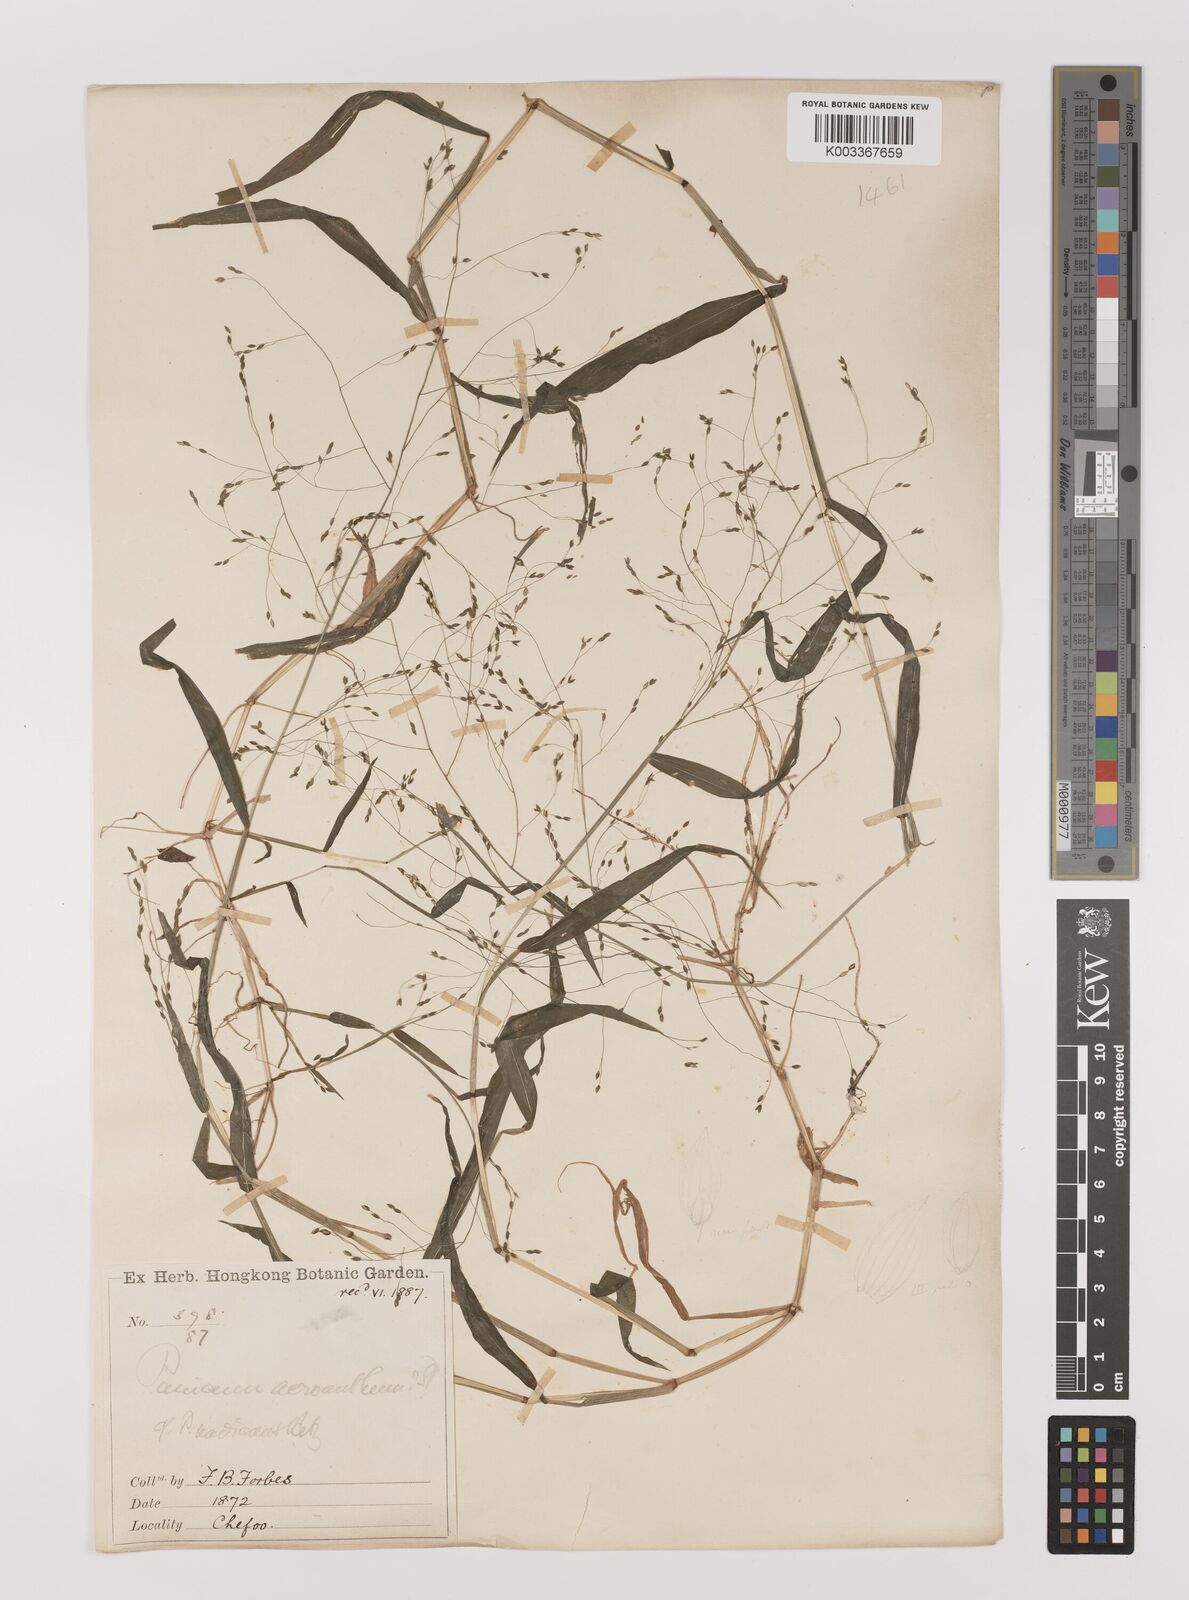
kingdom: Plantae
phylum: Tracheophyta
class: Liliopsida
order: Poales
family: Poaceae
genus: Panicum
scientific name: Panicum bisulcatum
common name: Japanese panicgrass
